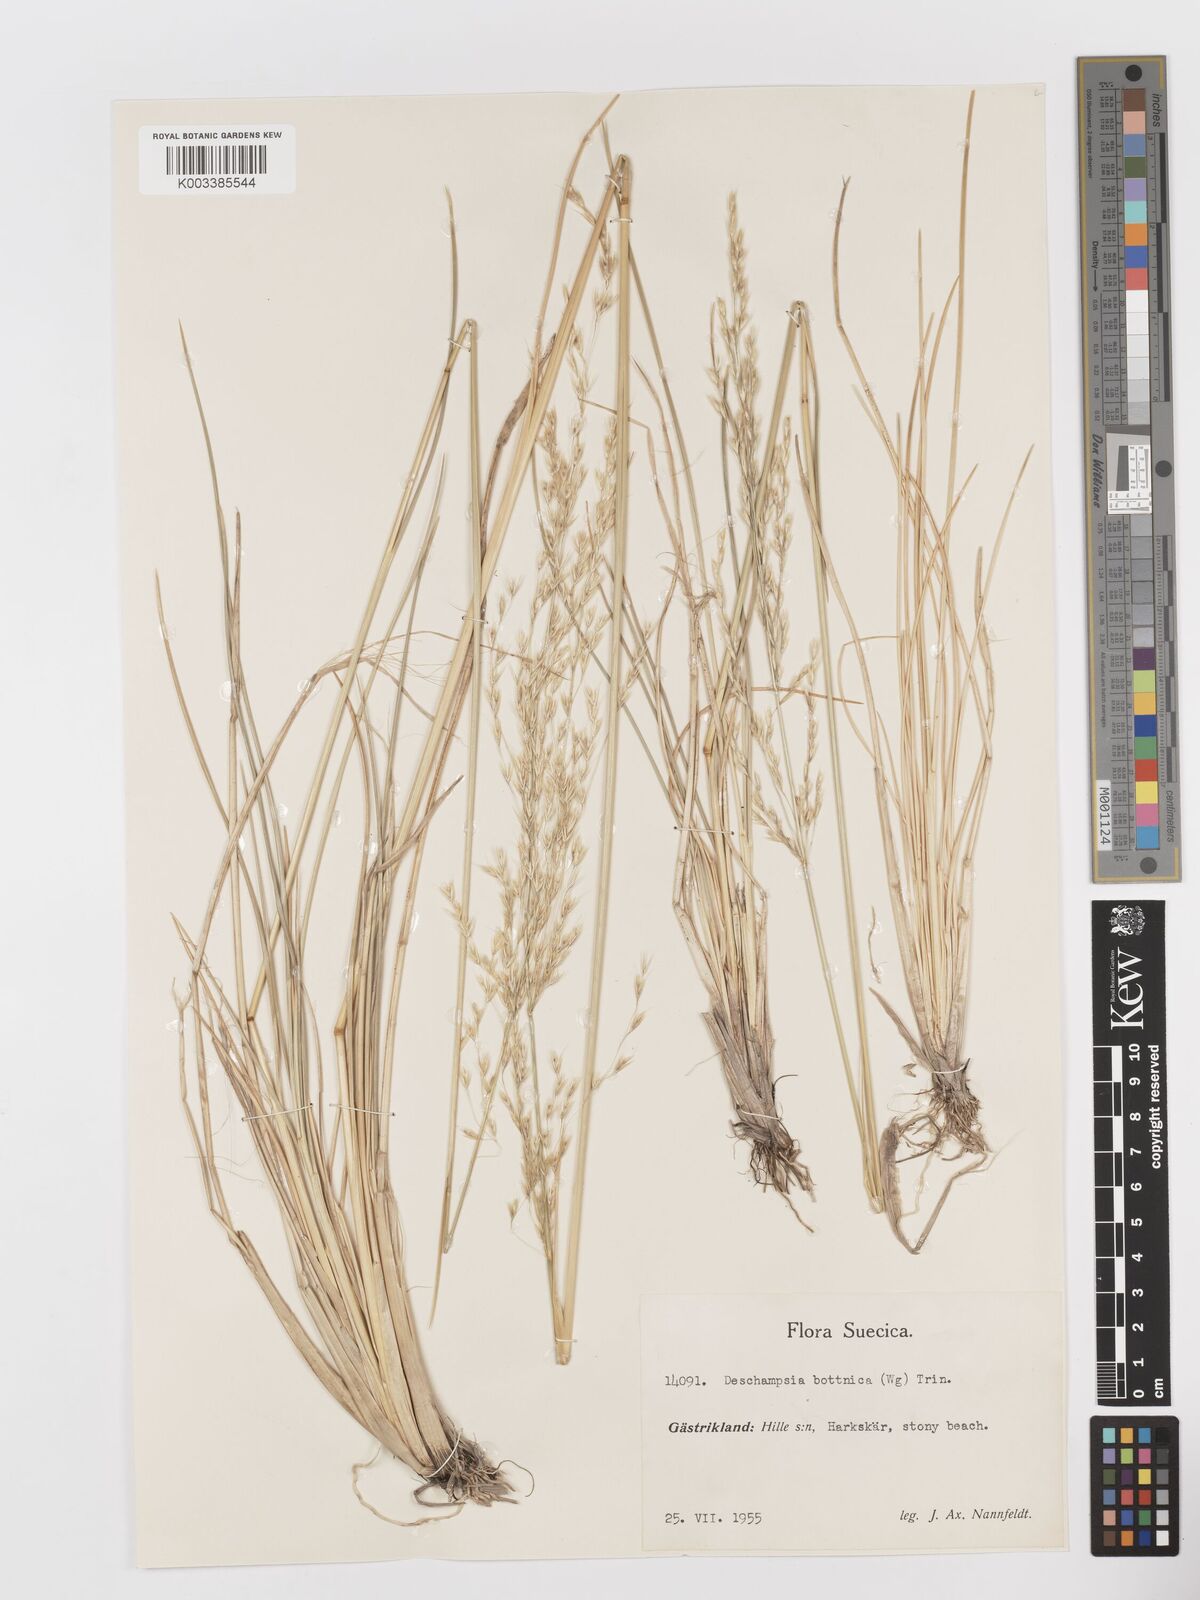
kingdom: Plantae
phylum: Tracheophyta
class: Liliopsida
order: Poales
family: Poaceae
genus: Deschampsia
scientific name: Deschampsia cespitosa
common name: Tufted hair-grass
